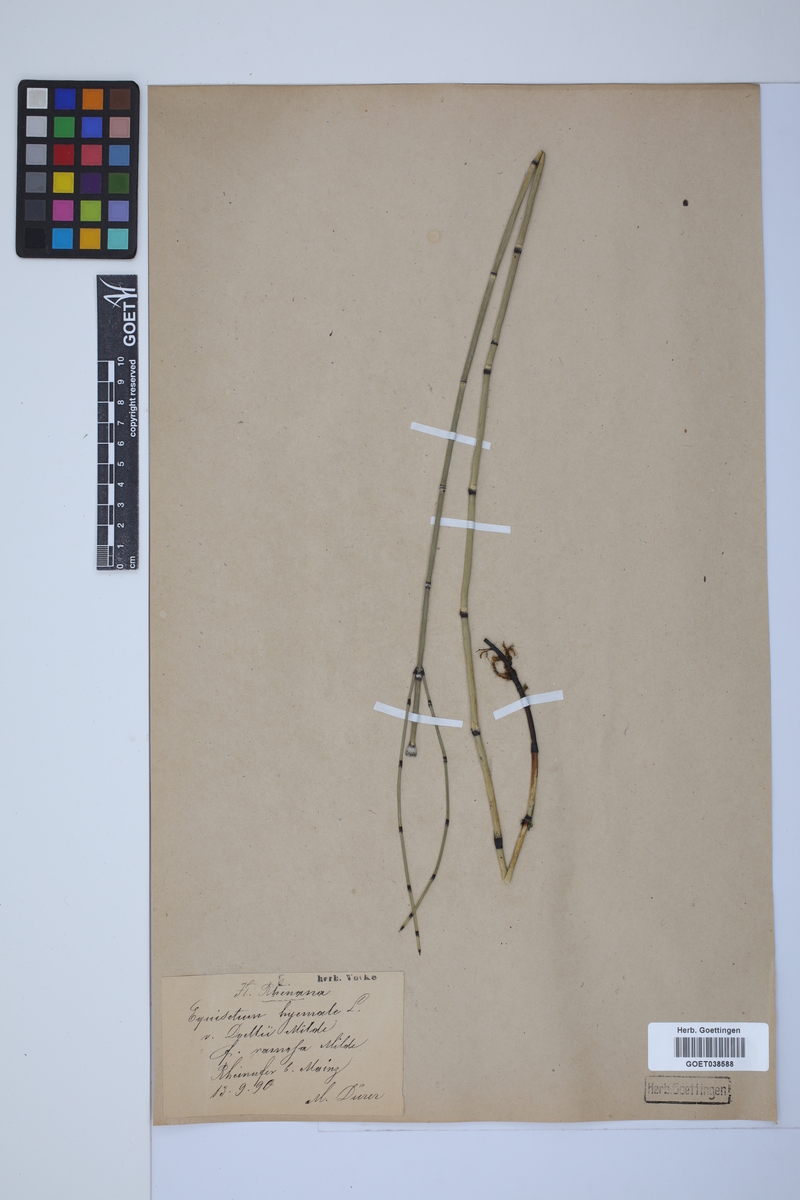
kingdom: Plantae
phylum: Tracheophyta
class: Polypodiopsida
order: Equisetales
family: Equisetaceae
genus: Equisetum
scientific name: Equisetum hyemale
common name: Rough horsetail
